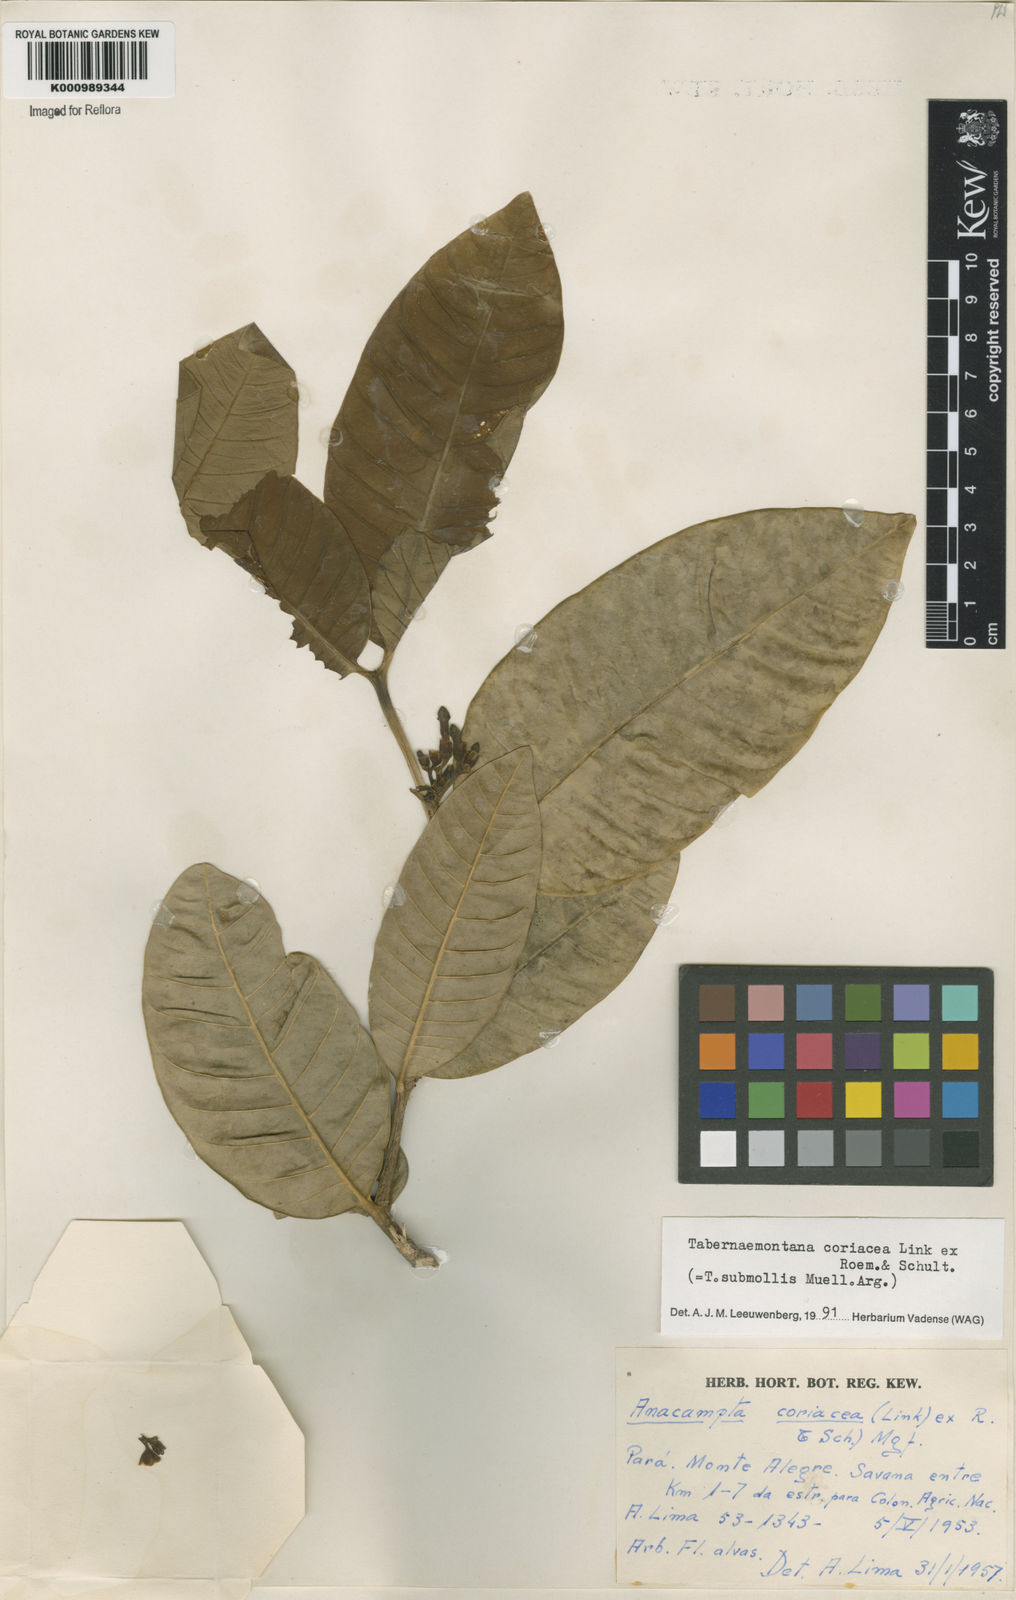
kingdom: Plantae
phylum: Tracheophyta
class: Magnoliopsida
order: Gentianales
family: Apocynaceae
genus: Tabernaemontana
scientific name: Tabernaemontana coriacea
